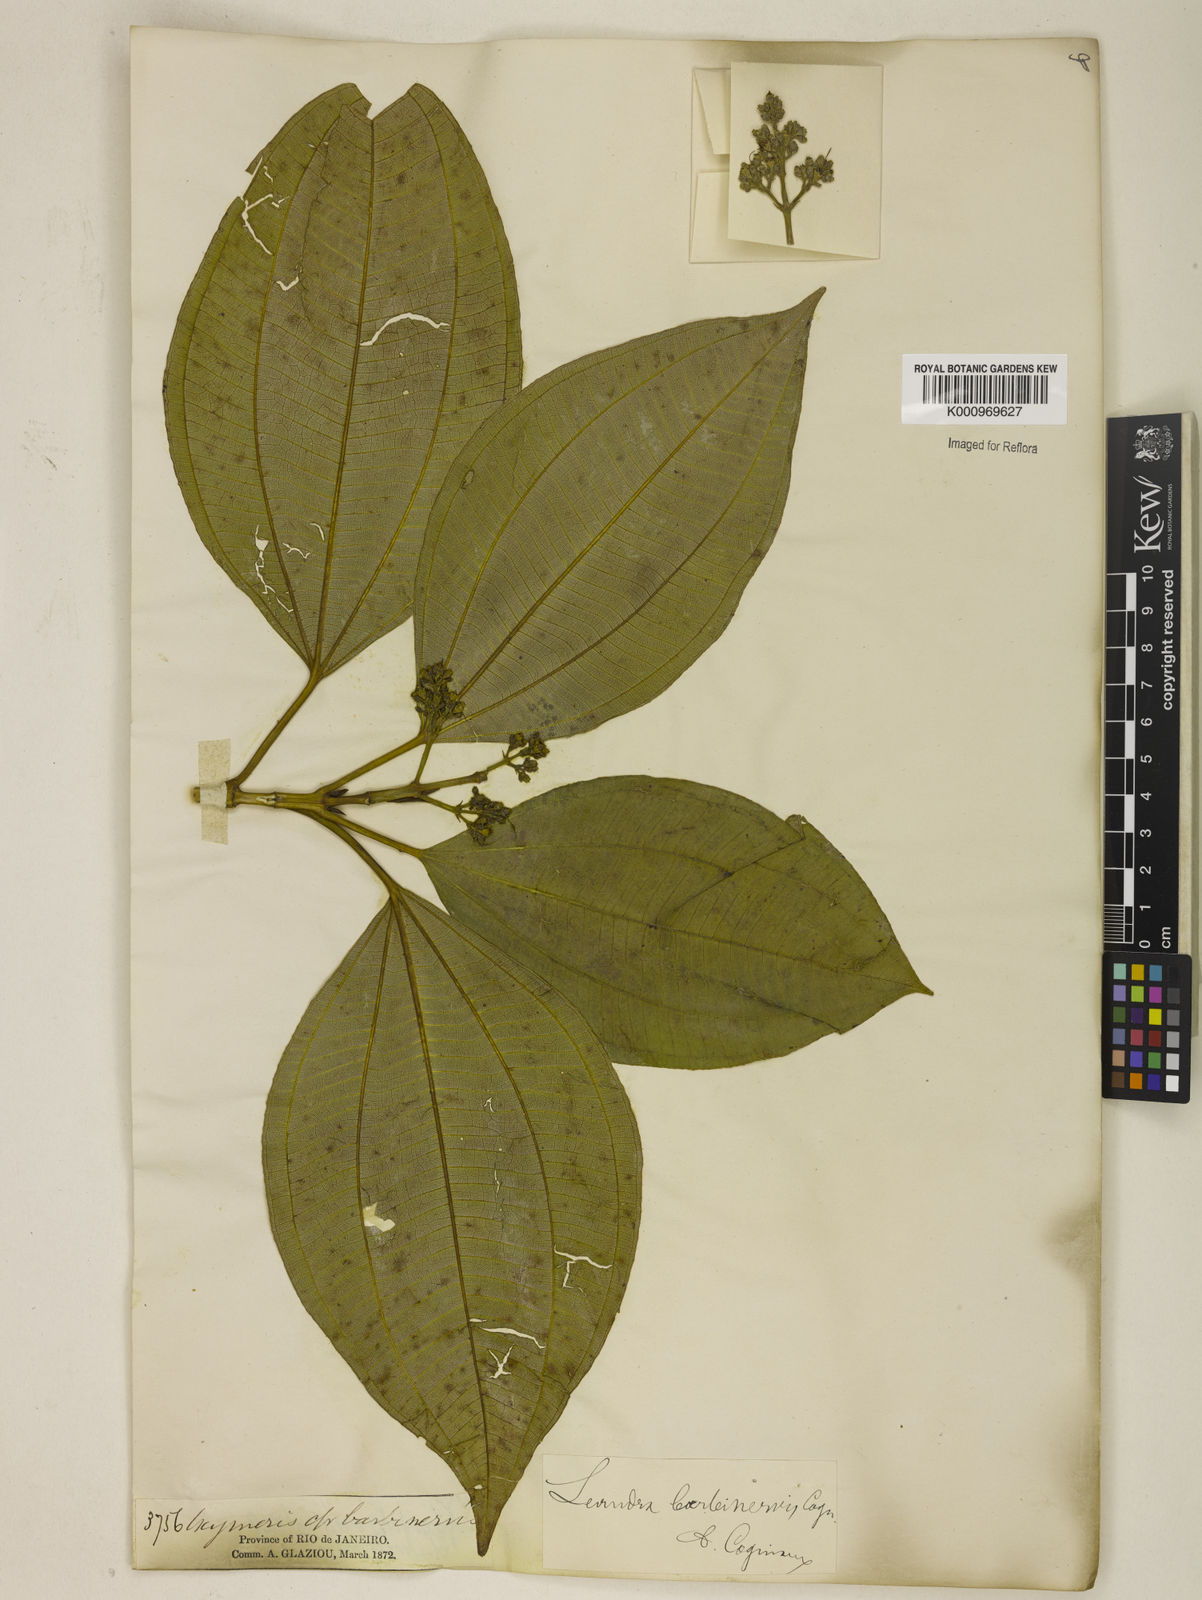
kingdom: Plantae
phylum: Tracheophyta
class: Magnoliopsida
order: Myrtales
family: Melastomataceae
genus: Miconia
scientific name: Miconia trauninensis
